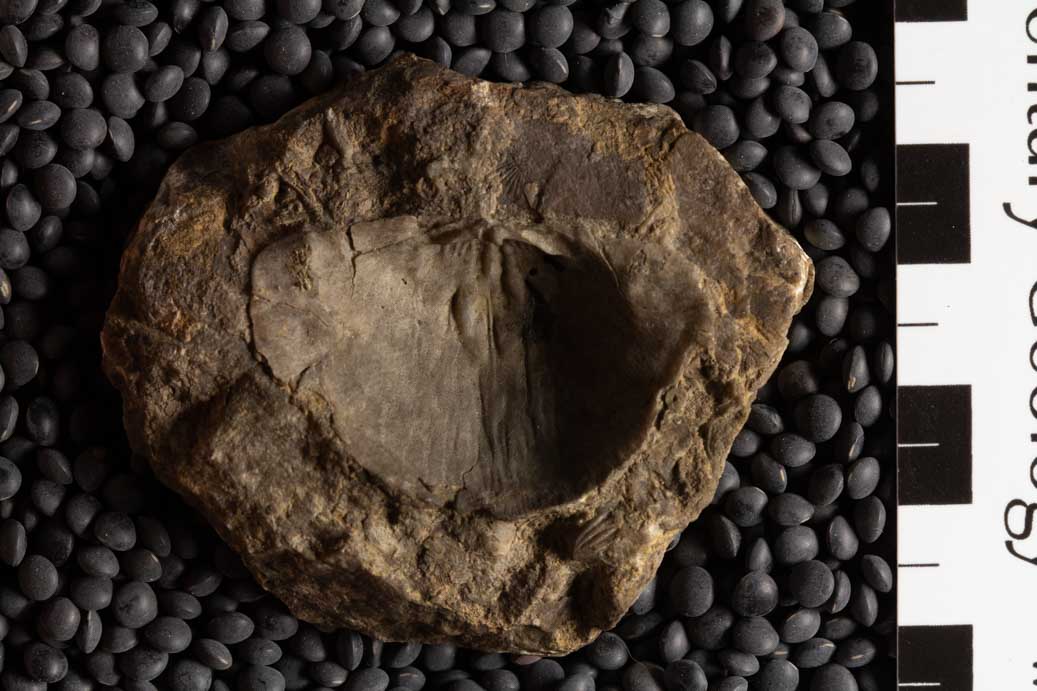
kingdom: Animalia
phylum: Brachiopoda
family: Streptorhynchidae
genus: Streptorhynchus
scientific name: Streptorhynchus
